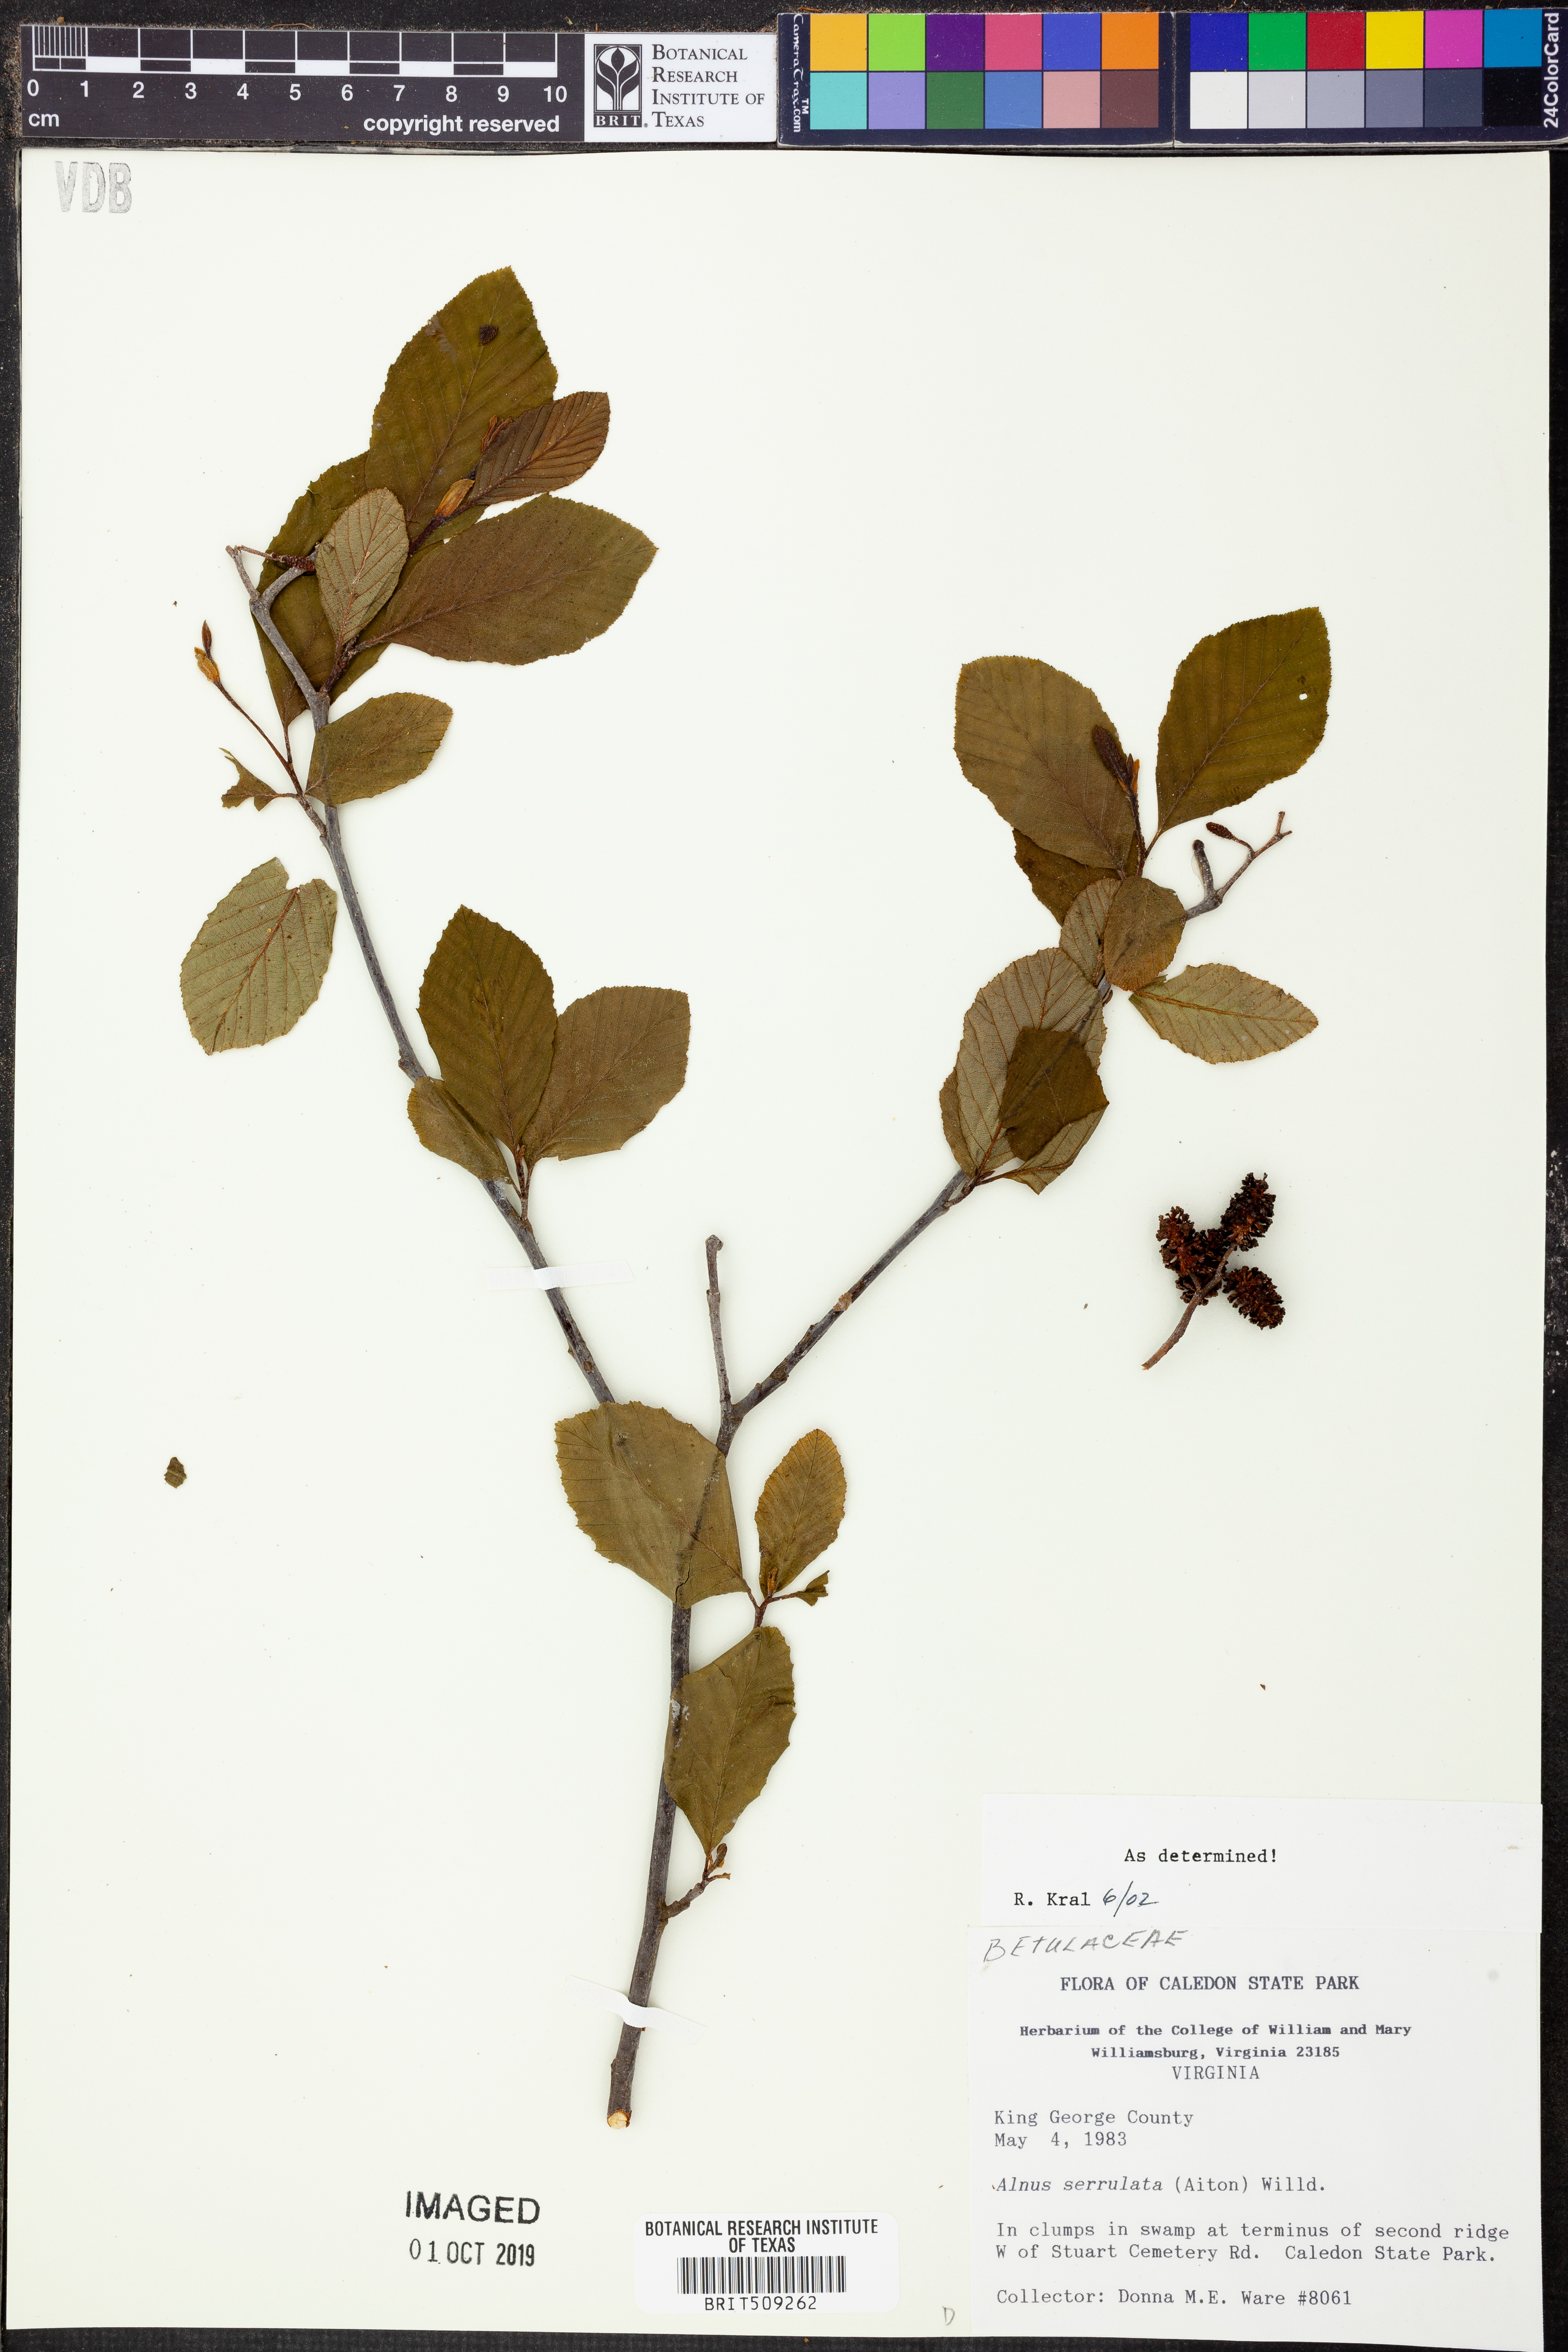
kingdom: Plantae
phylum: Tracheophyta
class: Magnoliopsida
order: Fagales
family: Betulaceae
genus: Alnus
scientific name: Alnus serrulata
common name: Hazel alder
